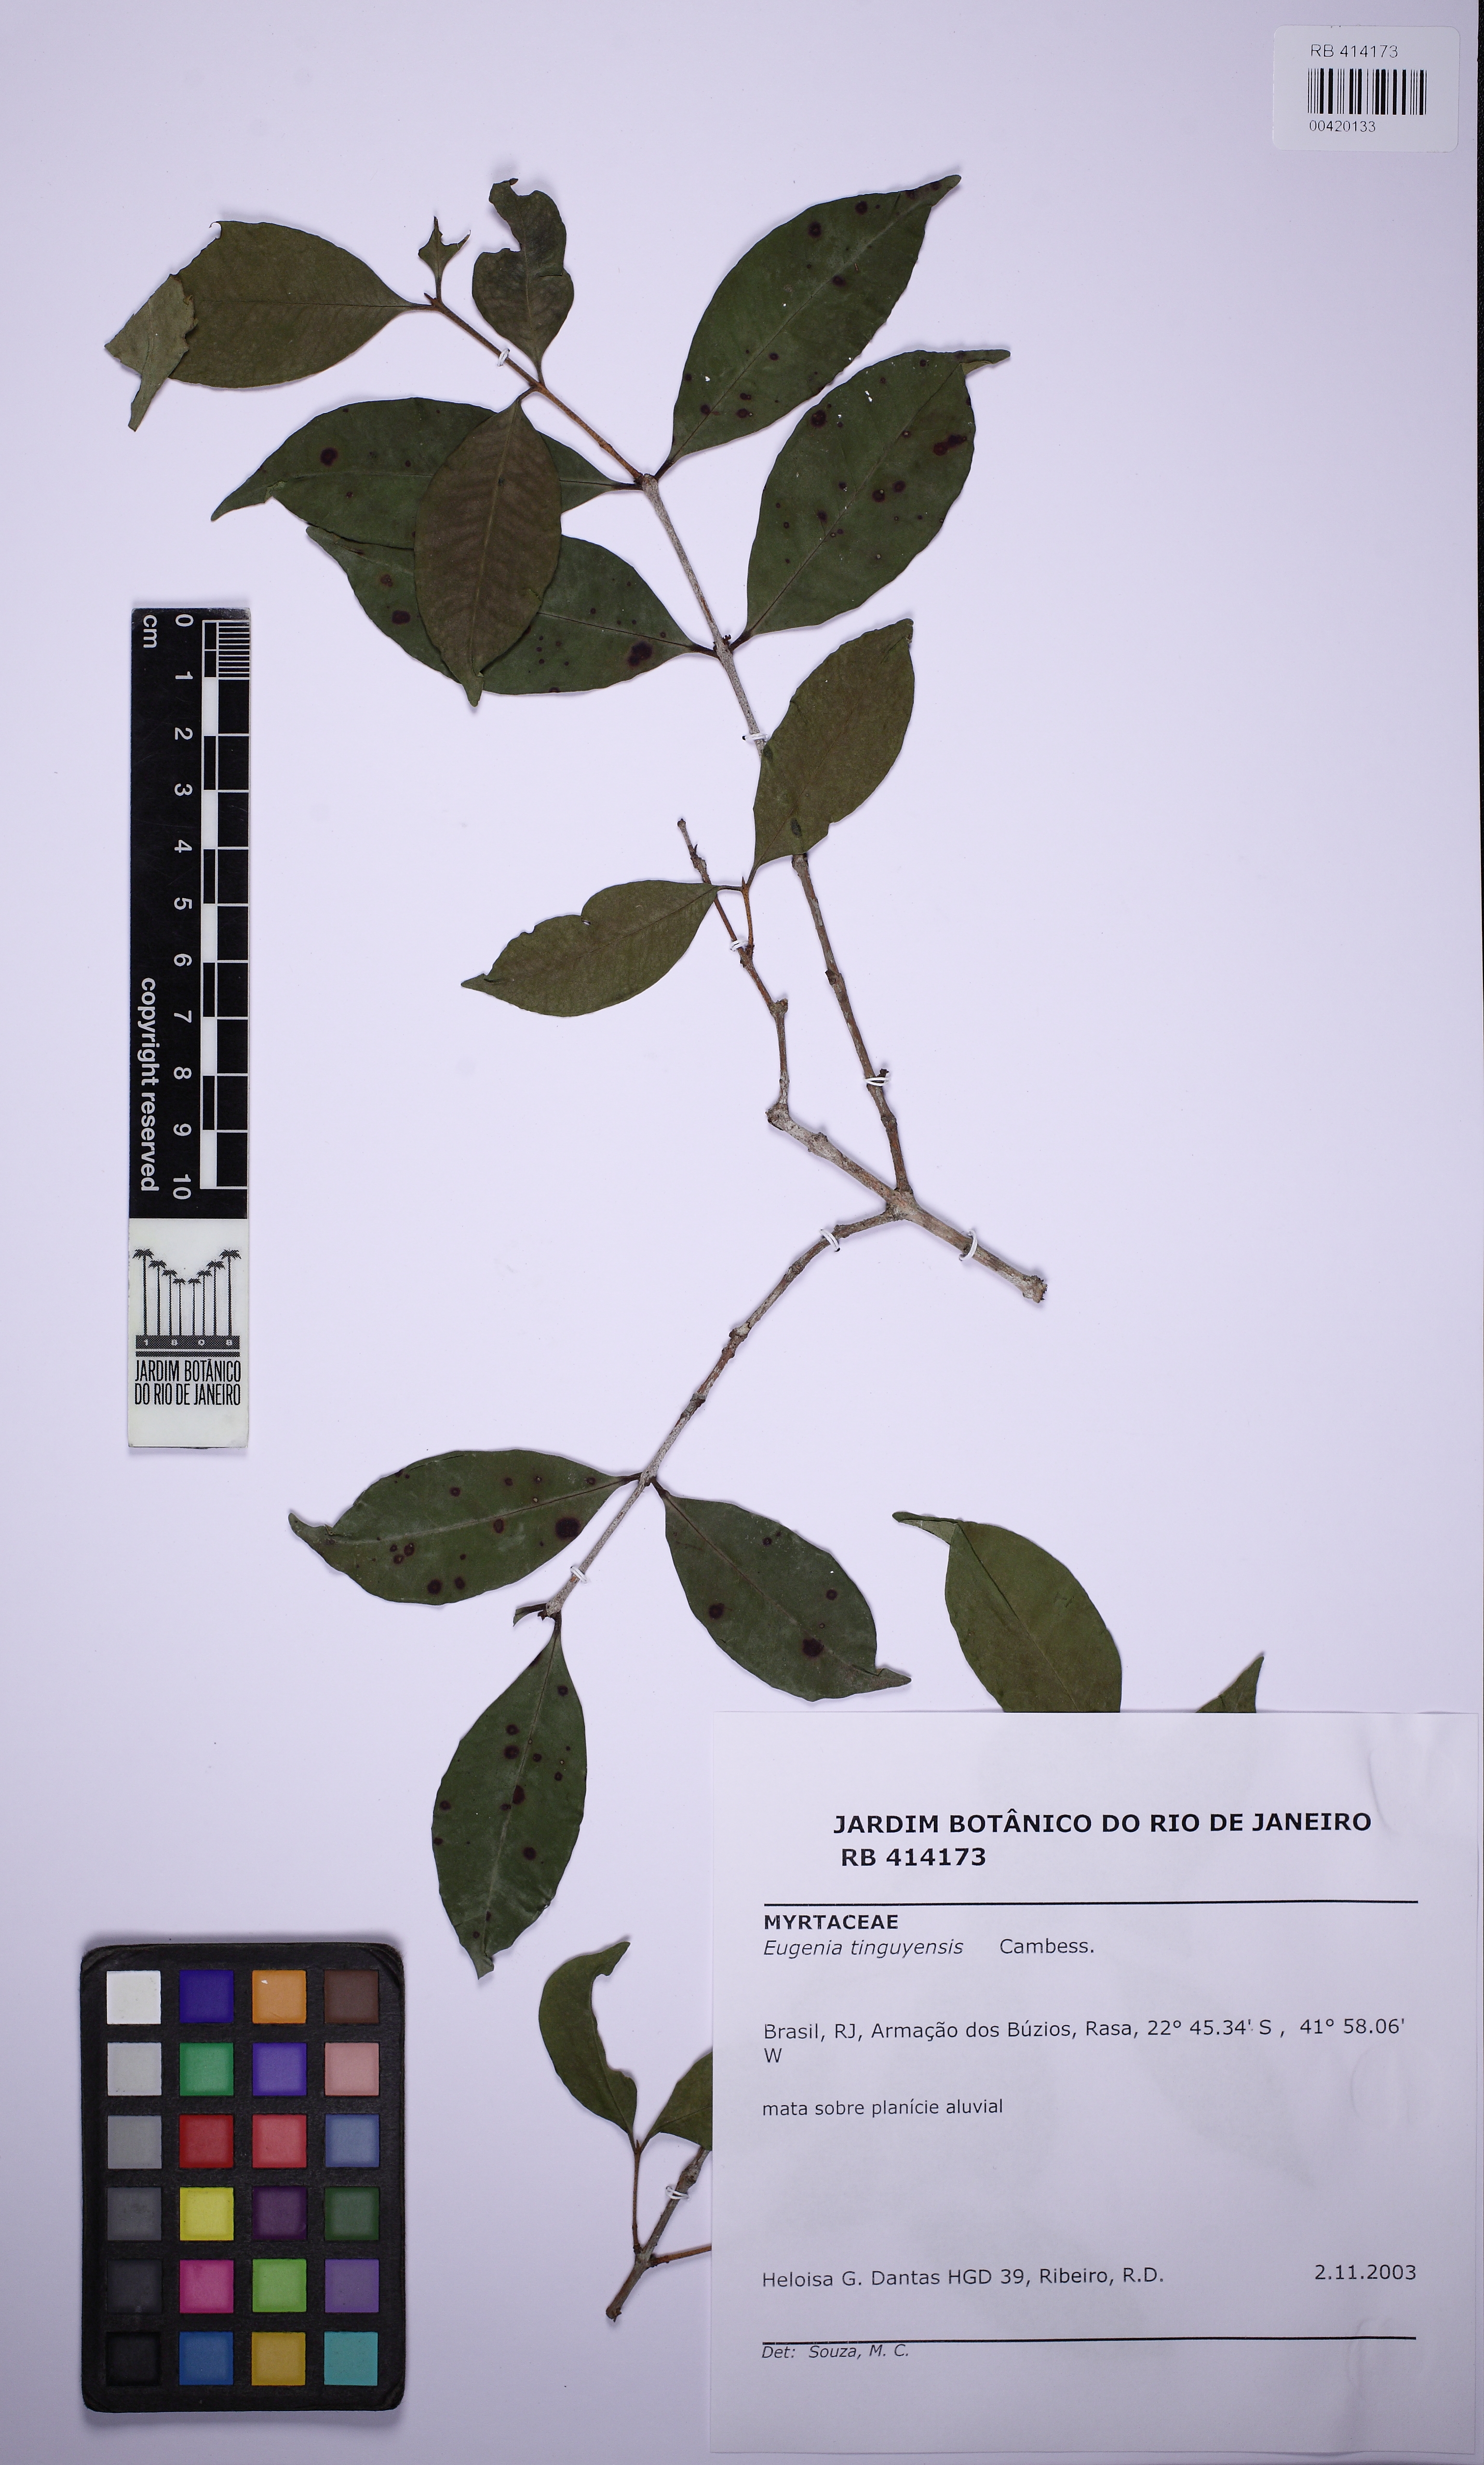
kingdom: Plantae
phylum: Tracheophyta
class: Magnoliopsida
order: Myrtales
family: Myrtaceae
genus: Eugenia
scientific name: Eugenia pisiformis
